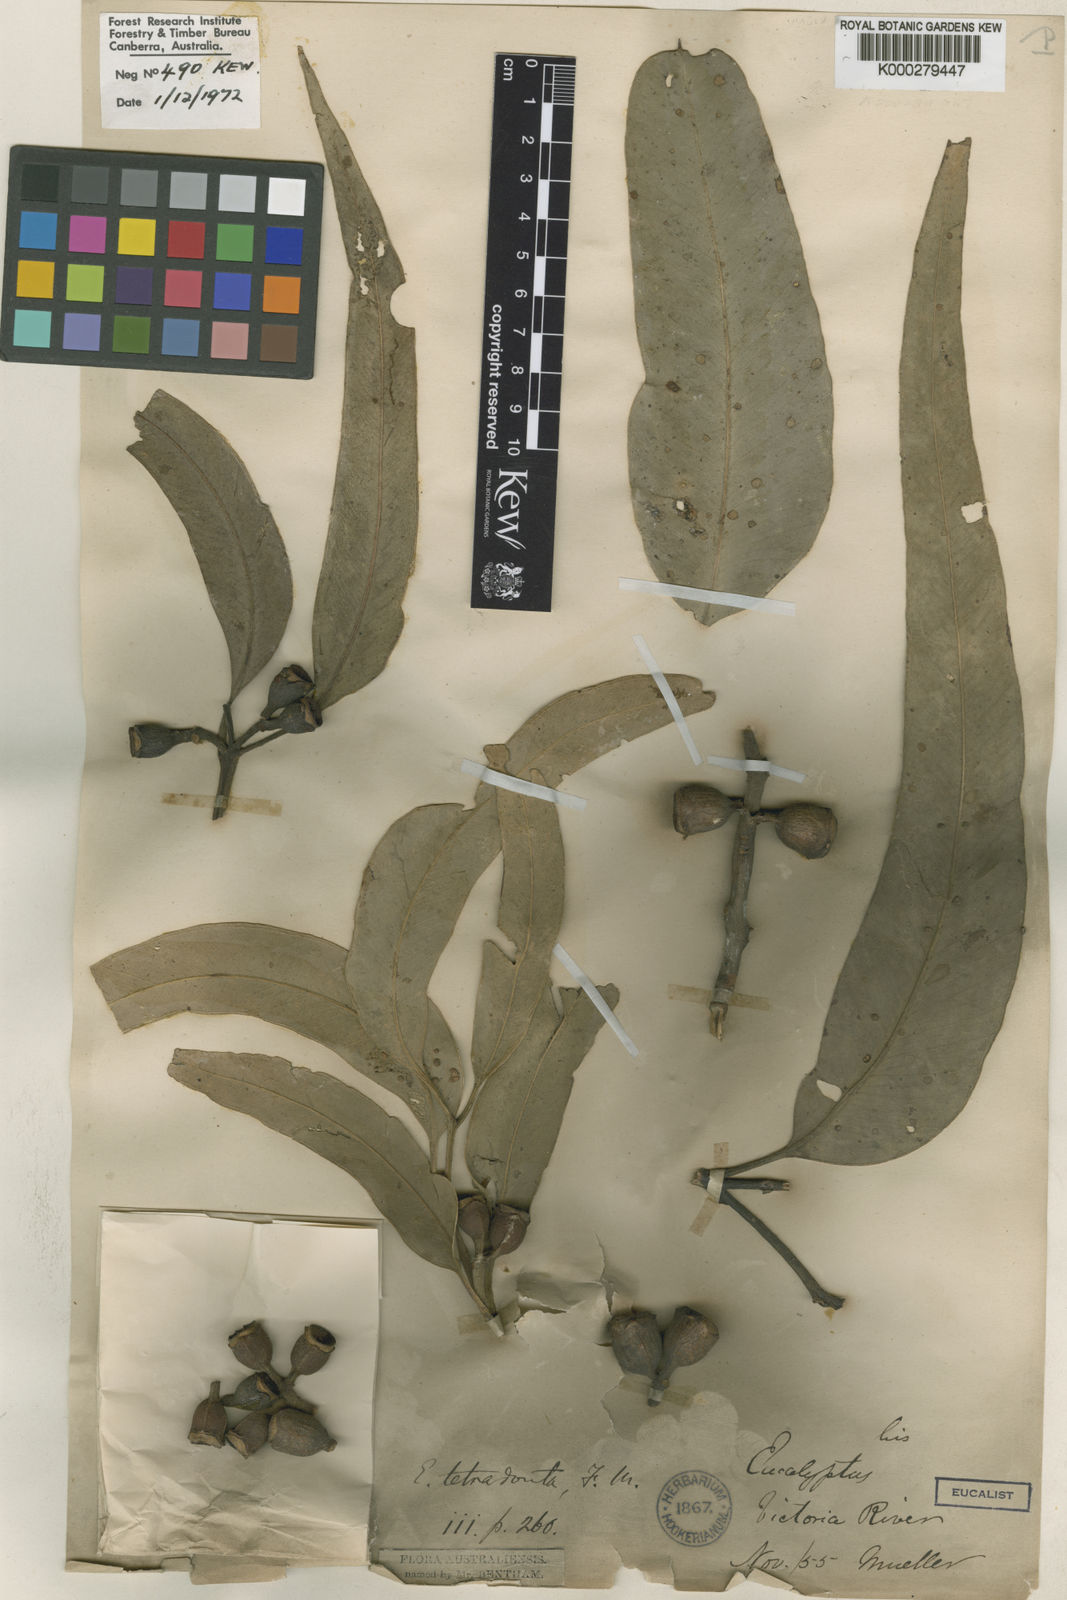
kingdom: Plantae
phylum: Tracheophyta
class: Magnoliopsida
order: Myrtales
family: Myrtaceae
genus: Eucalyptus
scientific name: Eucalyptus tetrodonta
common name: Darwin-stringybark
